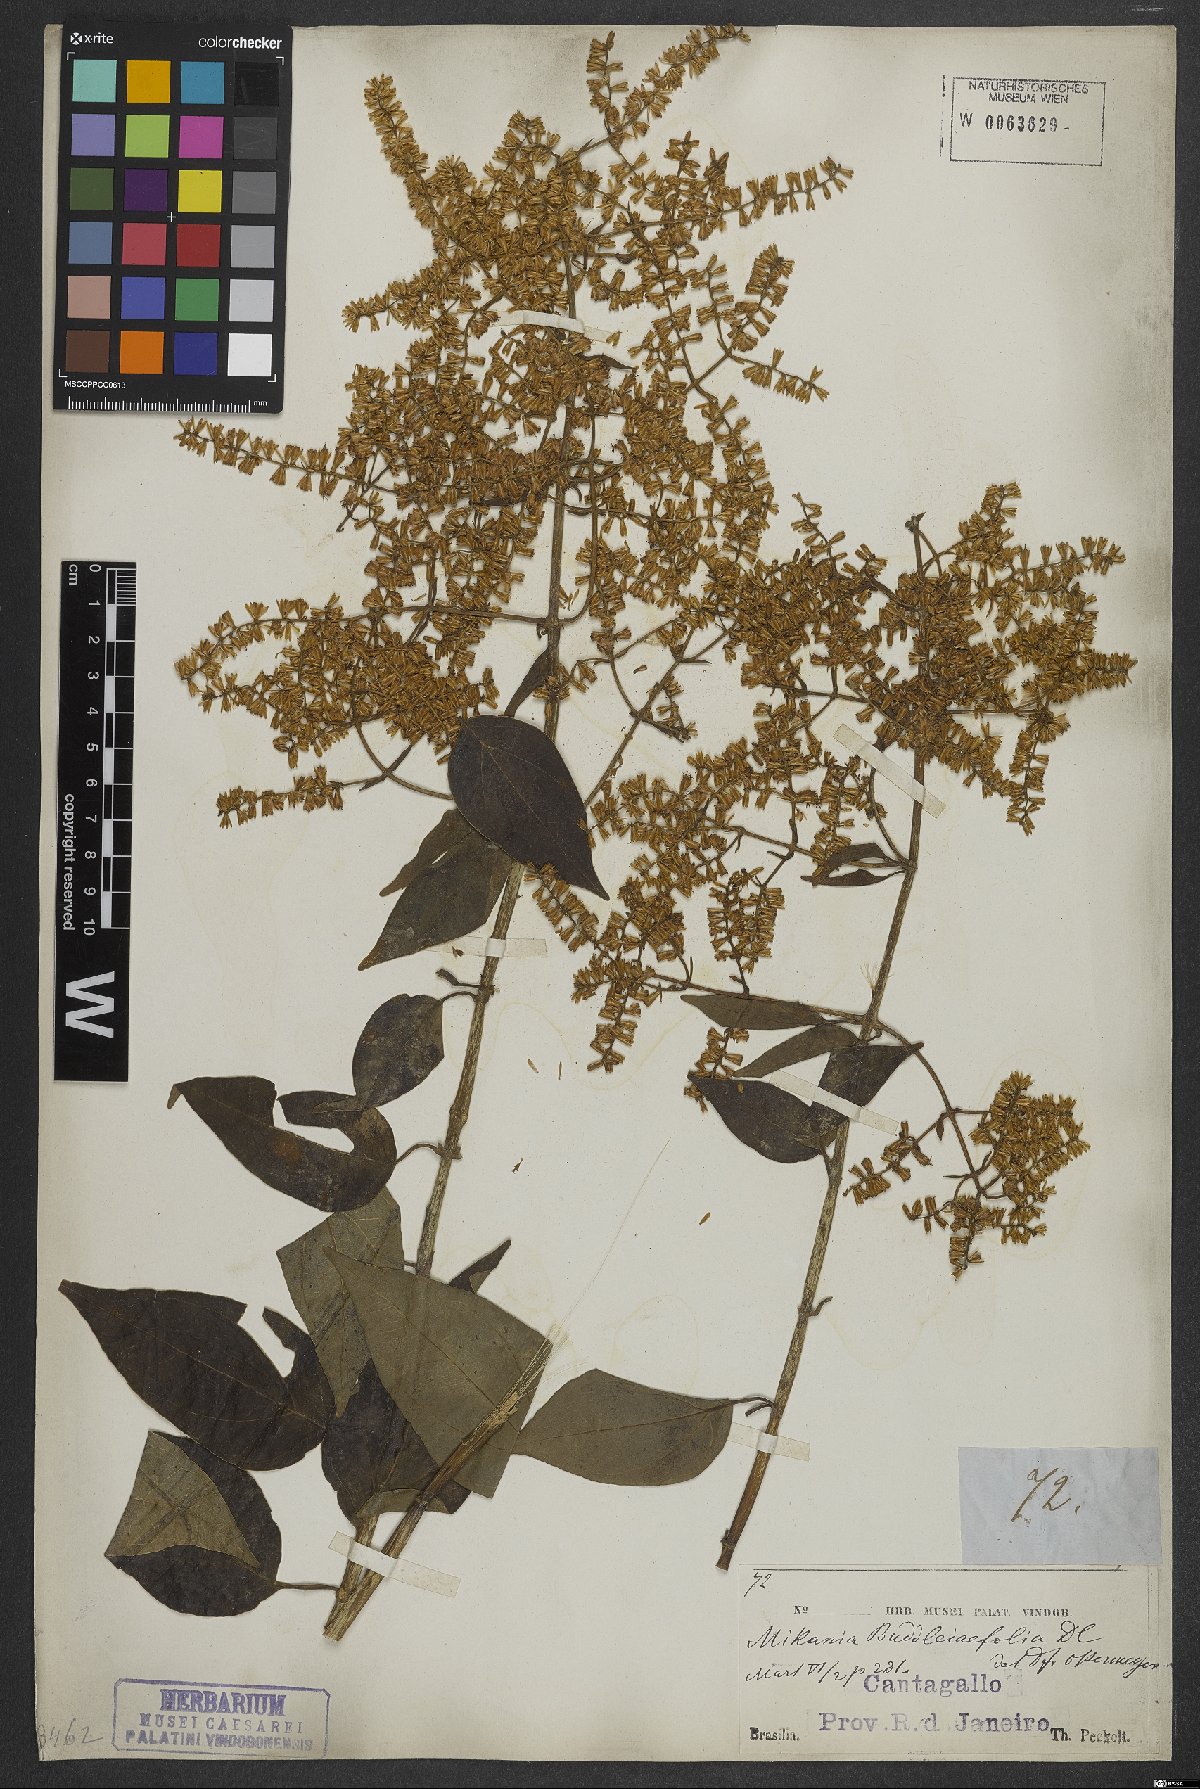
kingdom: Plantae
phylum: Tracheophyta
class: Magnoliopsida
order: Asterales
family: Asteraceae
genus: Mikania
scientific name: Mikania buddlejifolia
